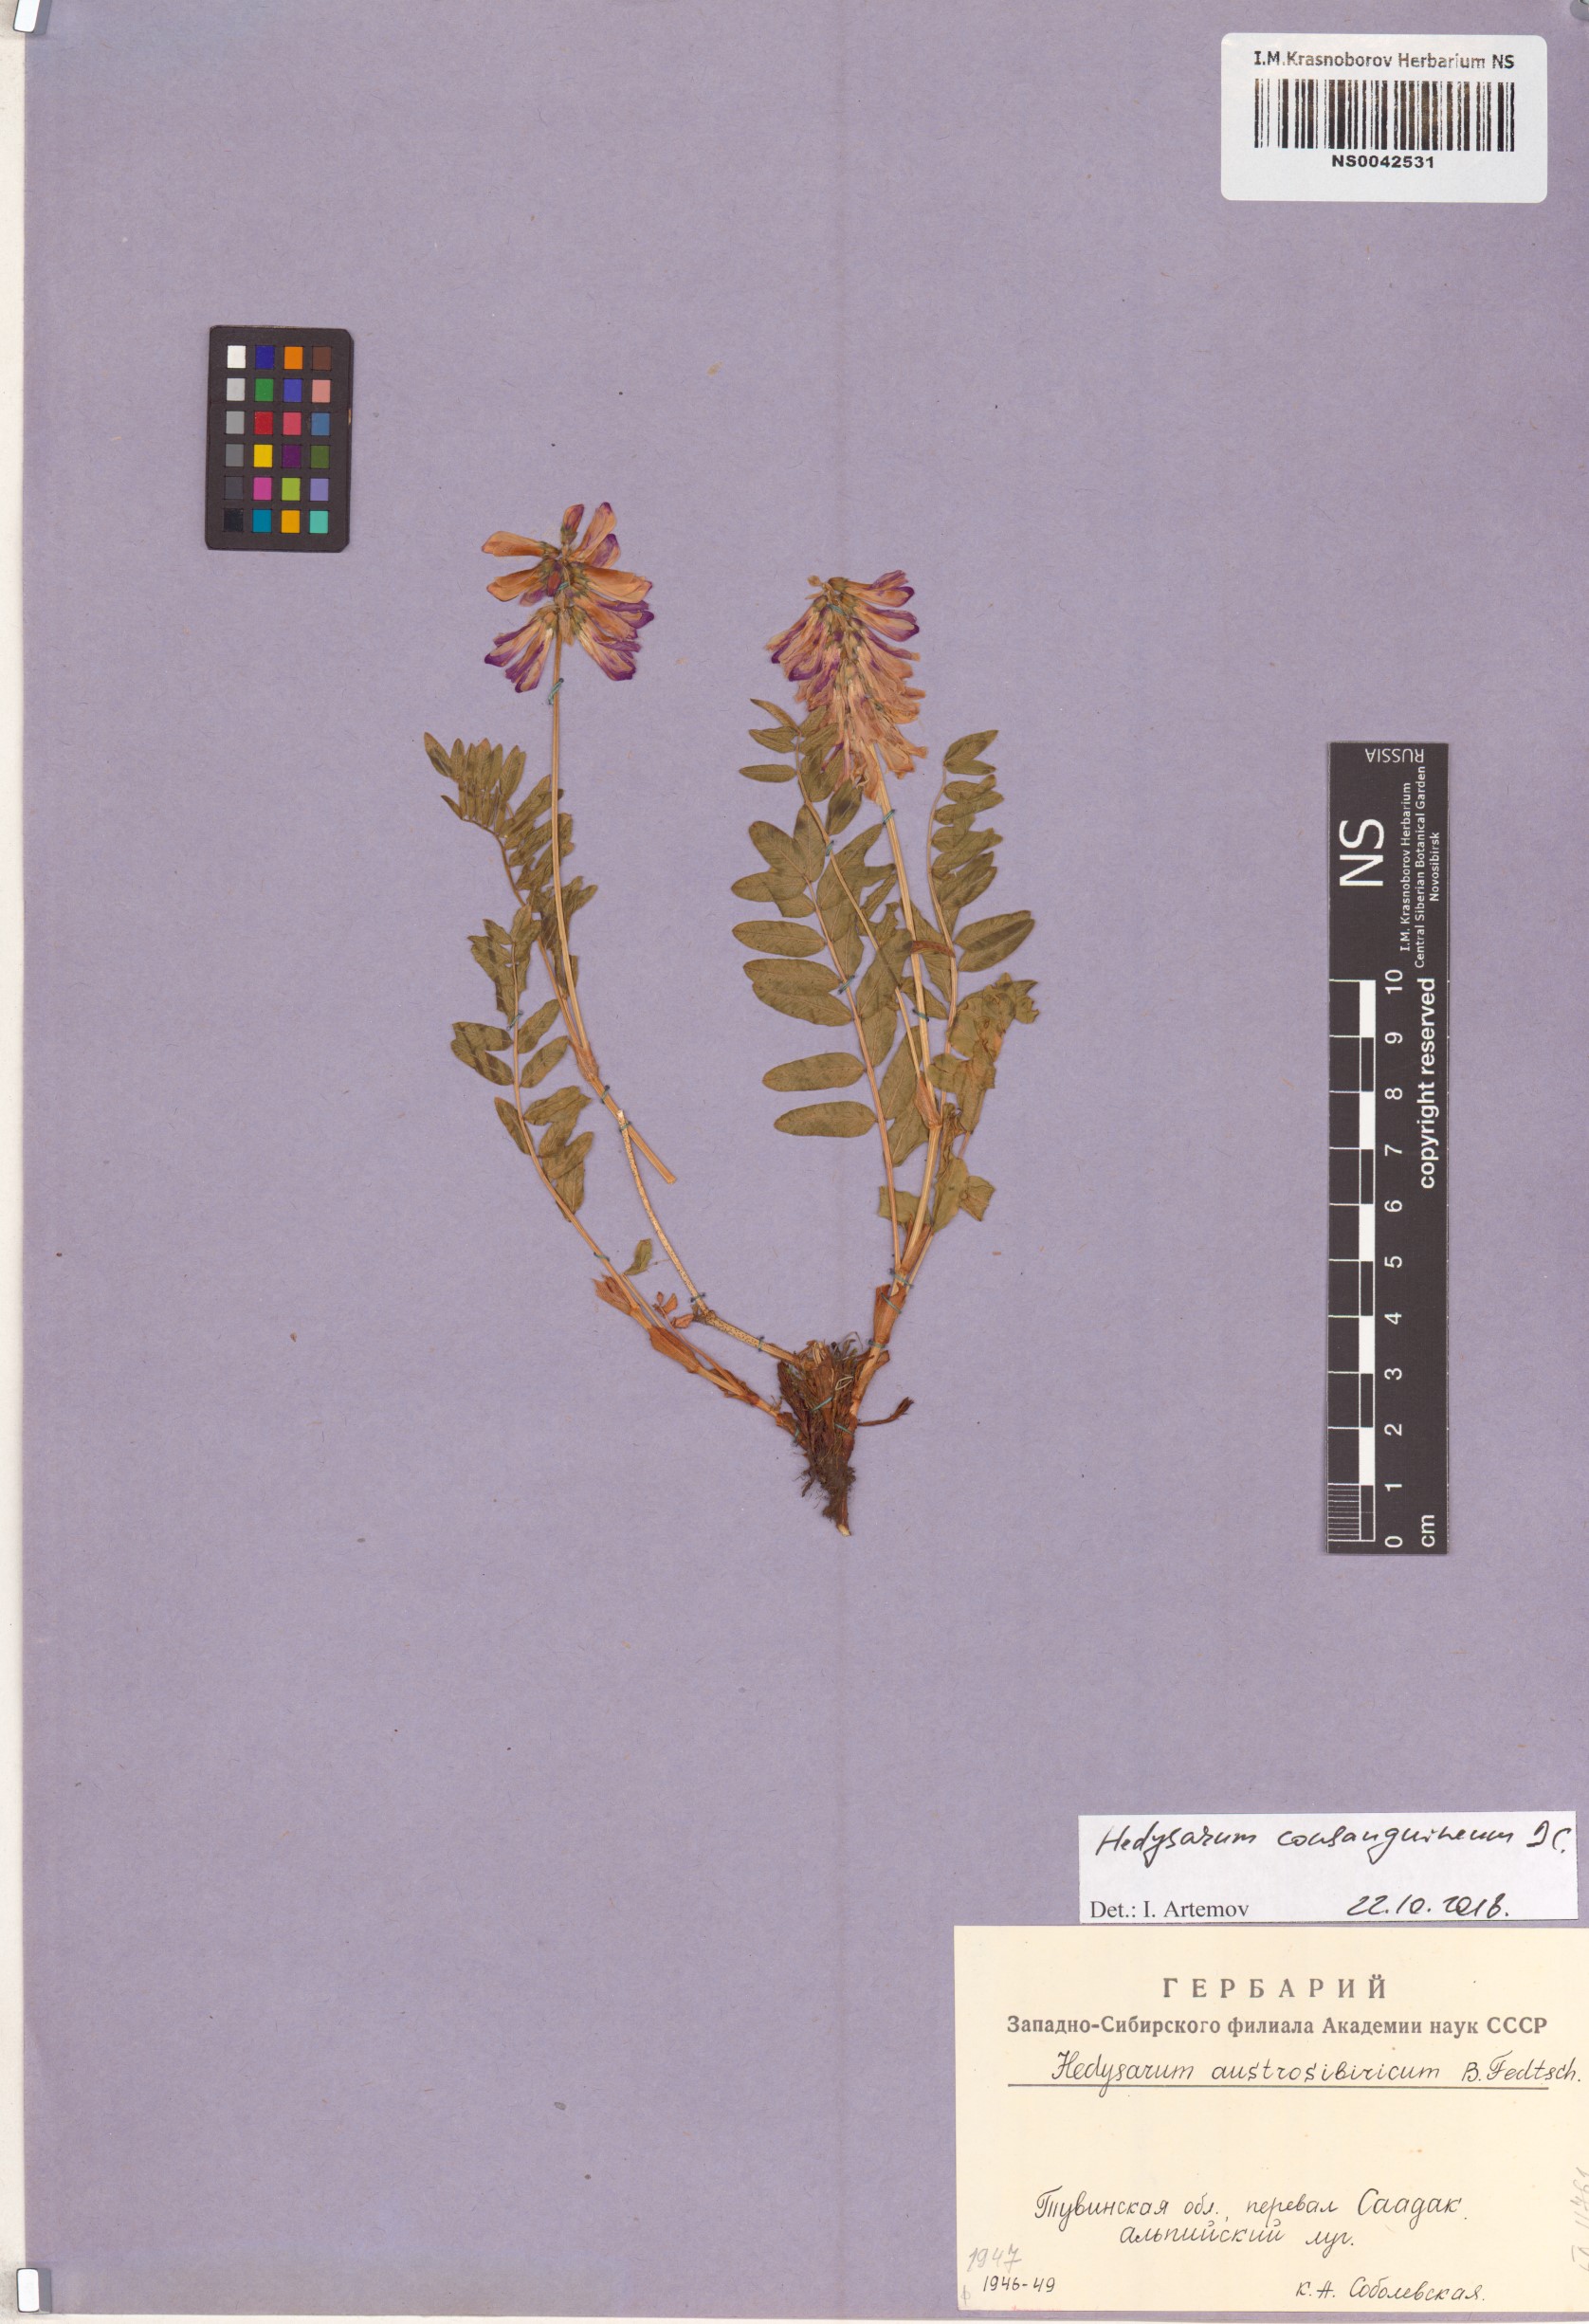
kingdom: Plantae
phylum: Tracheophyta
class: Magnoliopsida
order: Fabales
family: Fabaceae
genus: Hedysarum
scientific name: Hedysarum consanguineum
